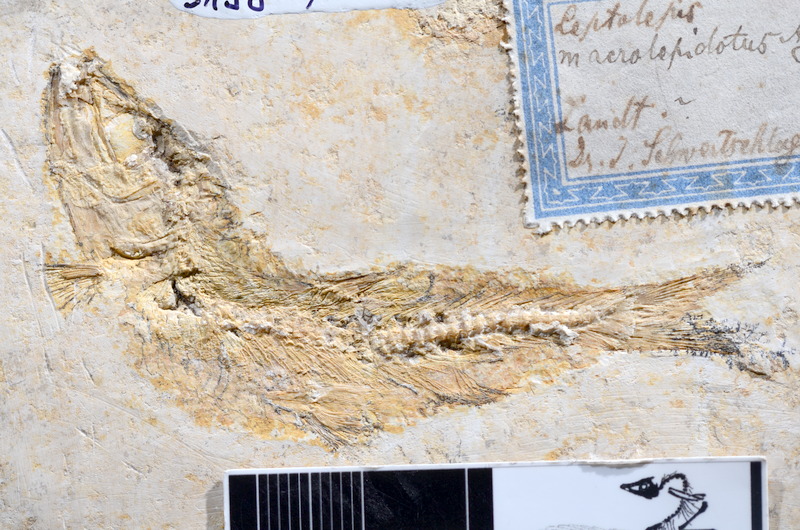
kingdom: Animalia
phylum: Chordata
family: Ascalaboidae
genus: Tharsis
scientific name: Tharsis dubius
